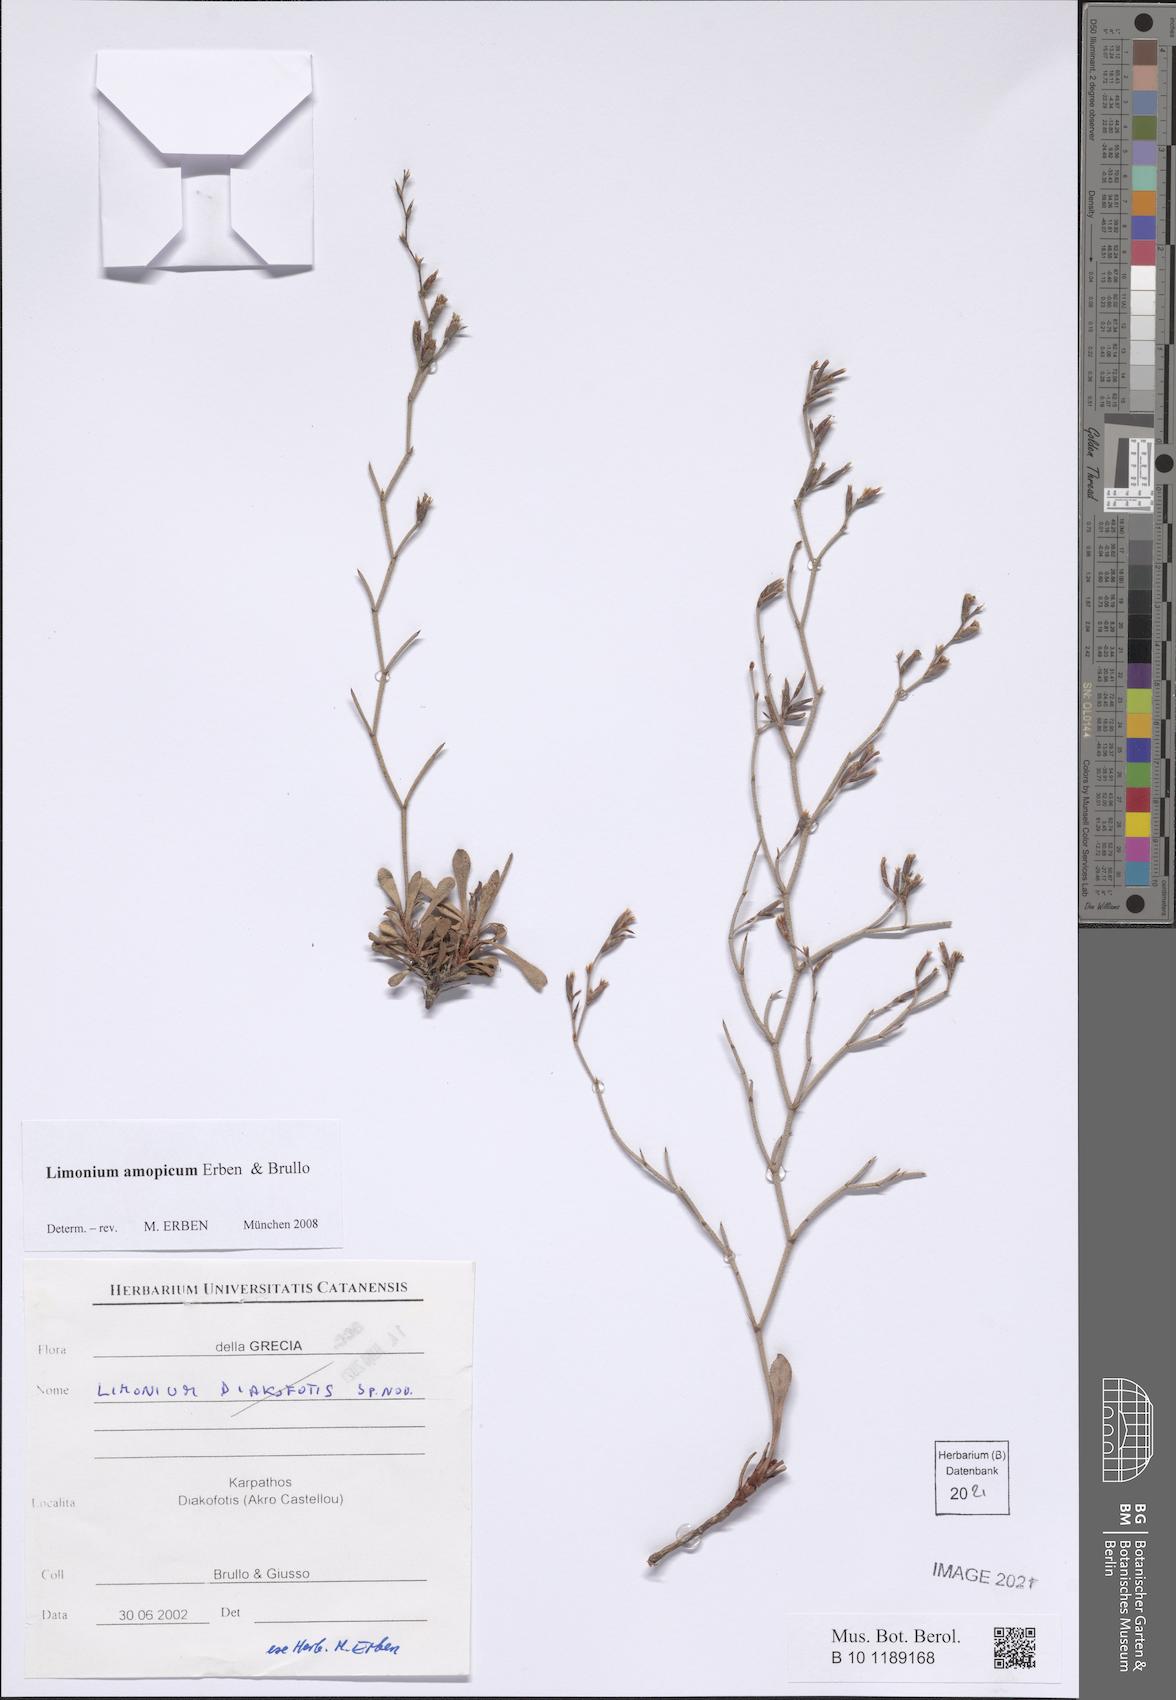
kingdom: Plantae
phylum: Tracheophyta
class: Magnoliopsida
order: Caryophyllales
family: Plumbaginaceae
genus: Limonium
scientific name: Limonium amopicum
